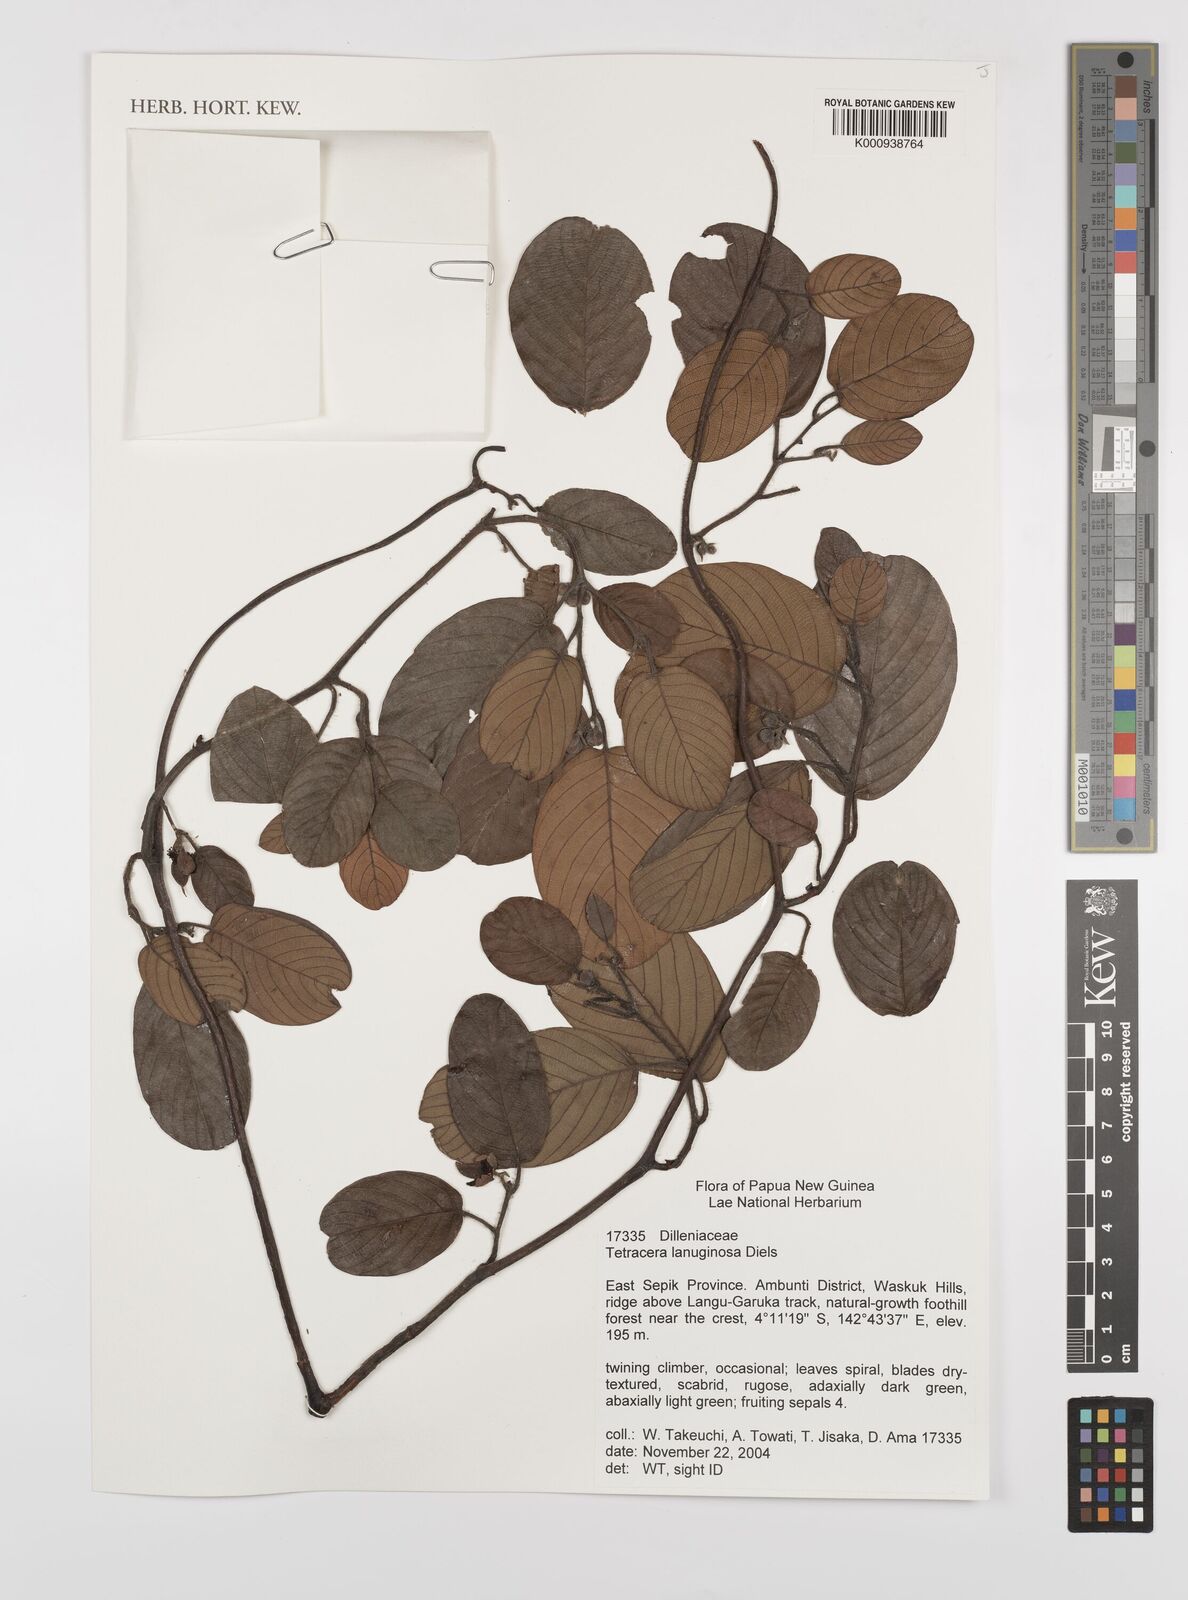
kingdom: Plantae
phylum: Tracheophyta
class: Magnoliopsida
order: Dilleniales
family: Dilleniaceae
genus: Tetracera
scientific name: Tetracera lanuginosa
